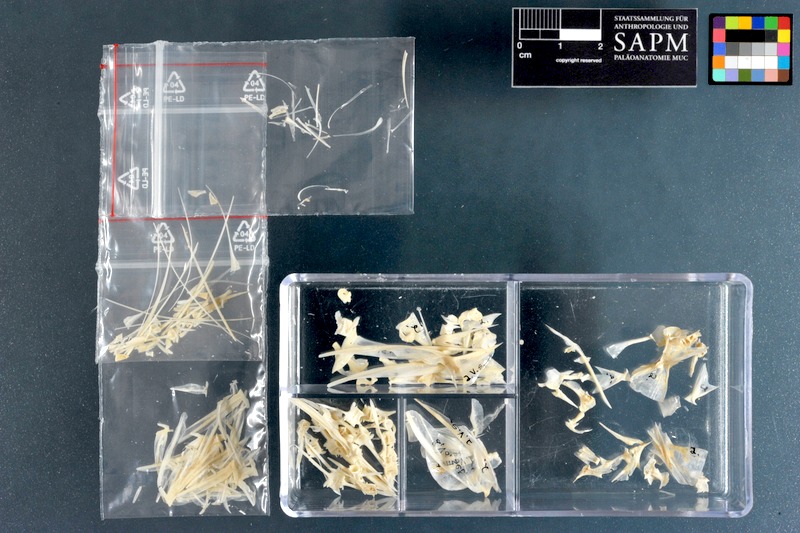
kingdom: Animalia
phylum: Chordata
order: Perciformes
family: Carangidae
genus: Selene
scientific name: Selene setapinnis
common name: Moonfish
